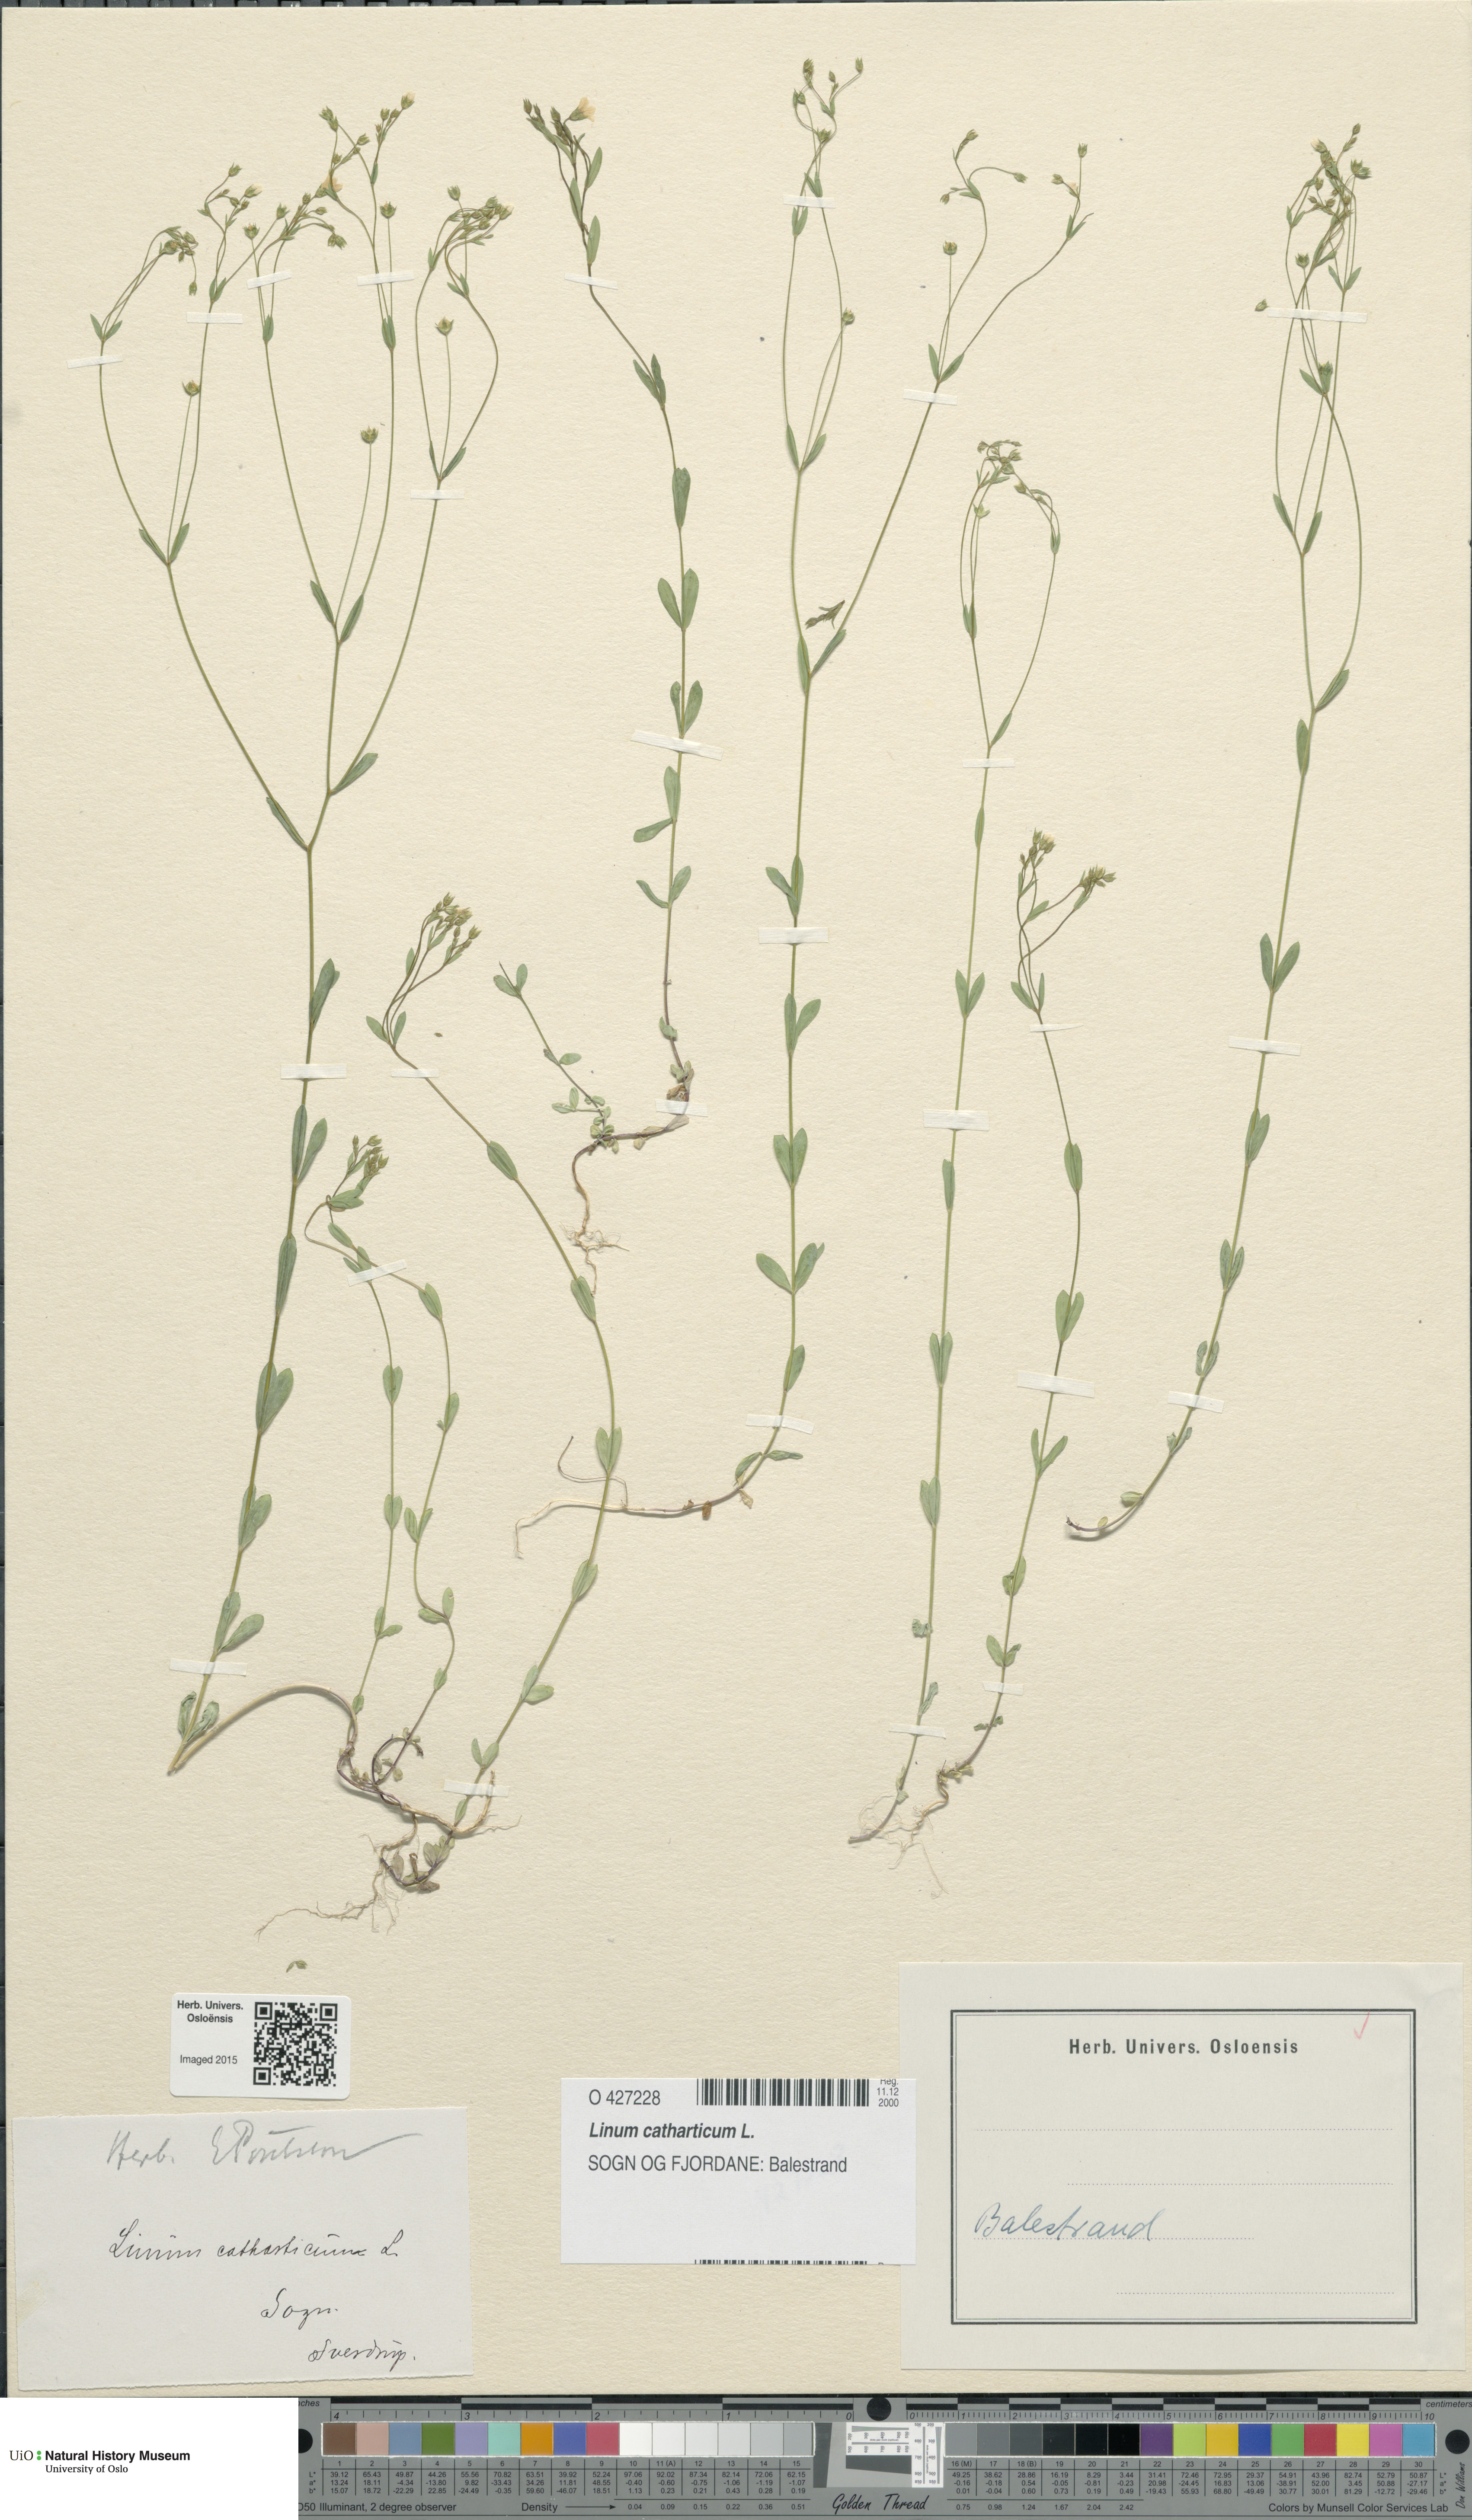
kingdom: Plantae
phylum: Tracheophyta
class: Magnoliopsida
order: Malpighiales
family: Linaceae
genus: Linum
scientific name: Linum catharticum
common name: Fairy flax
